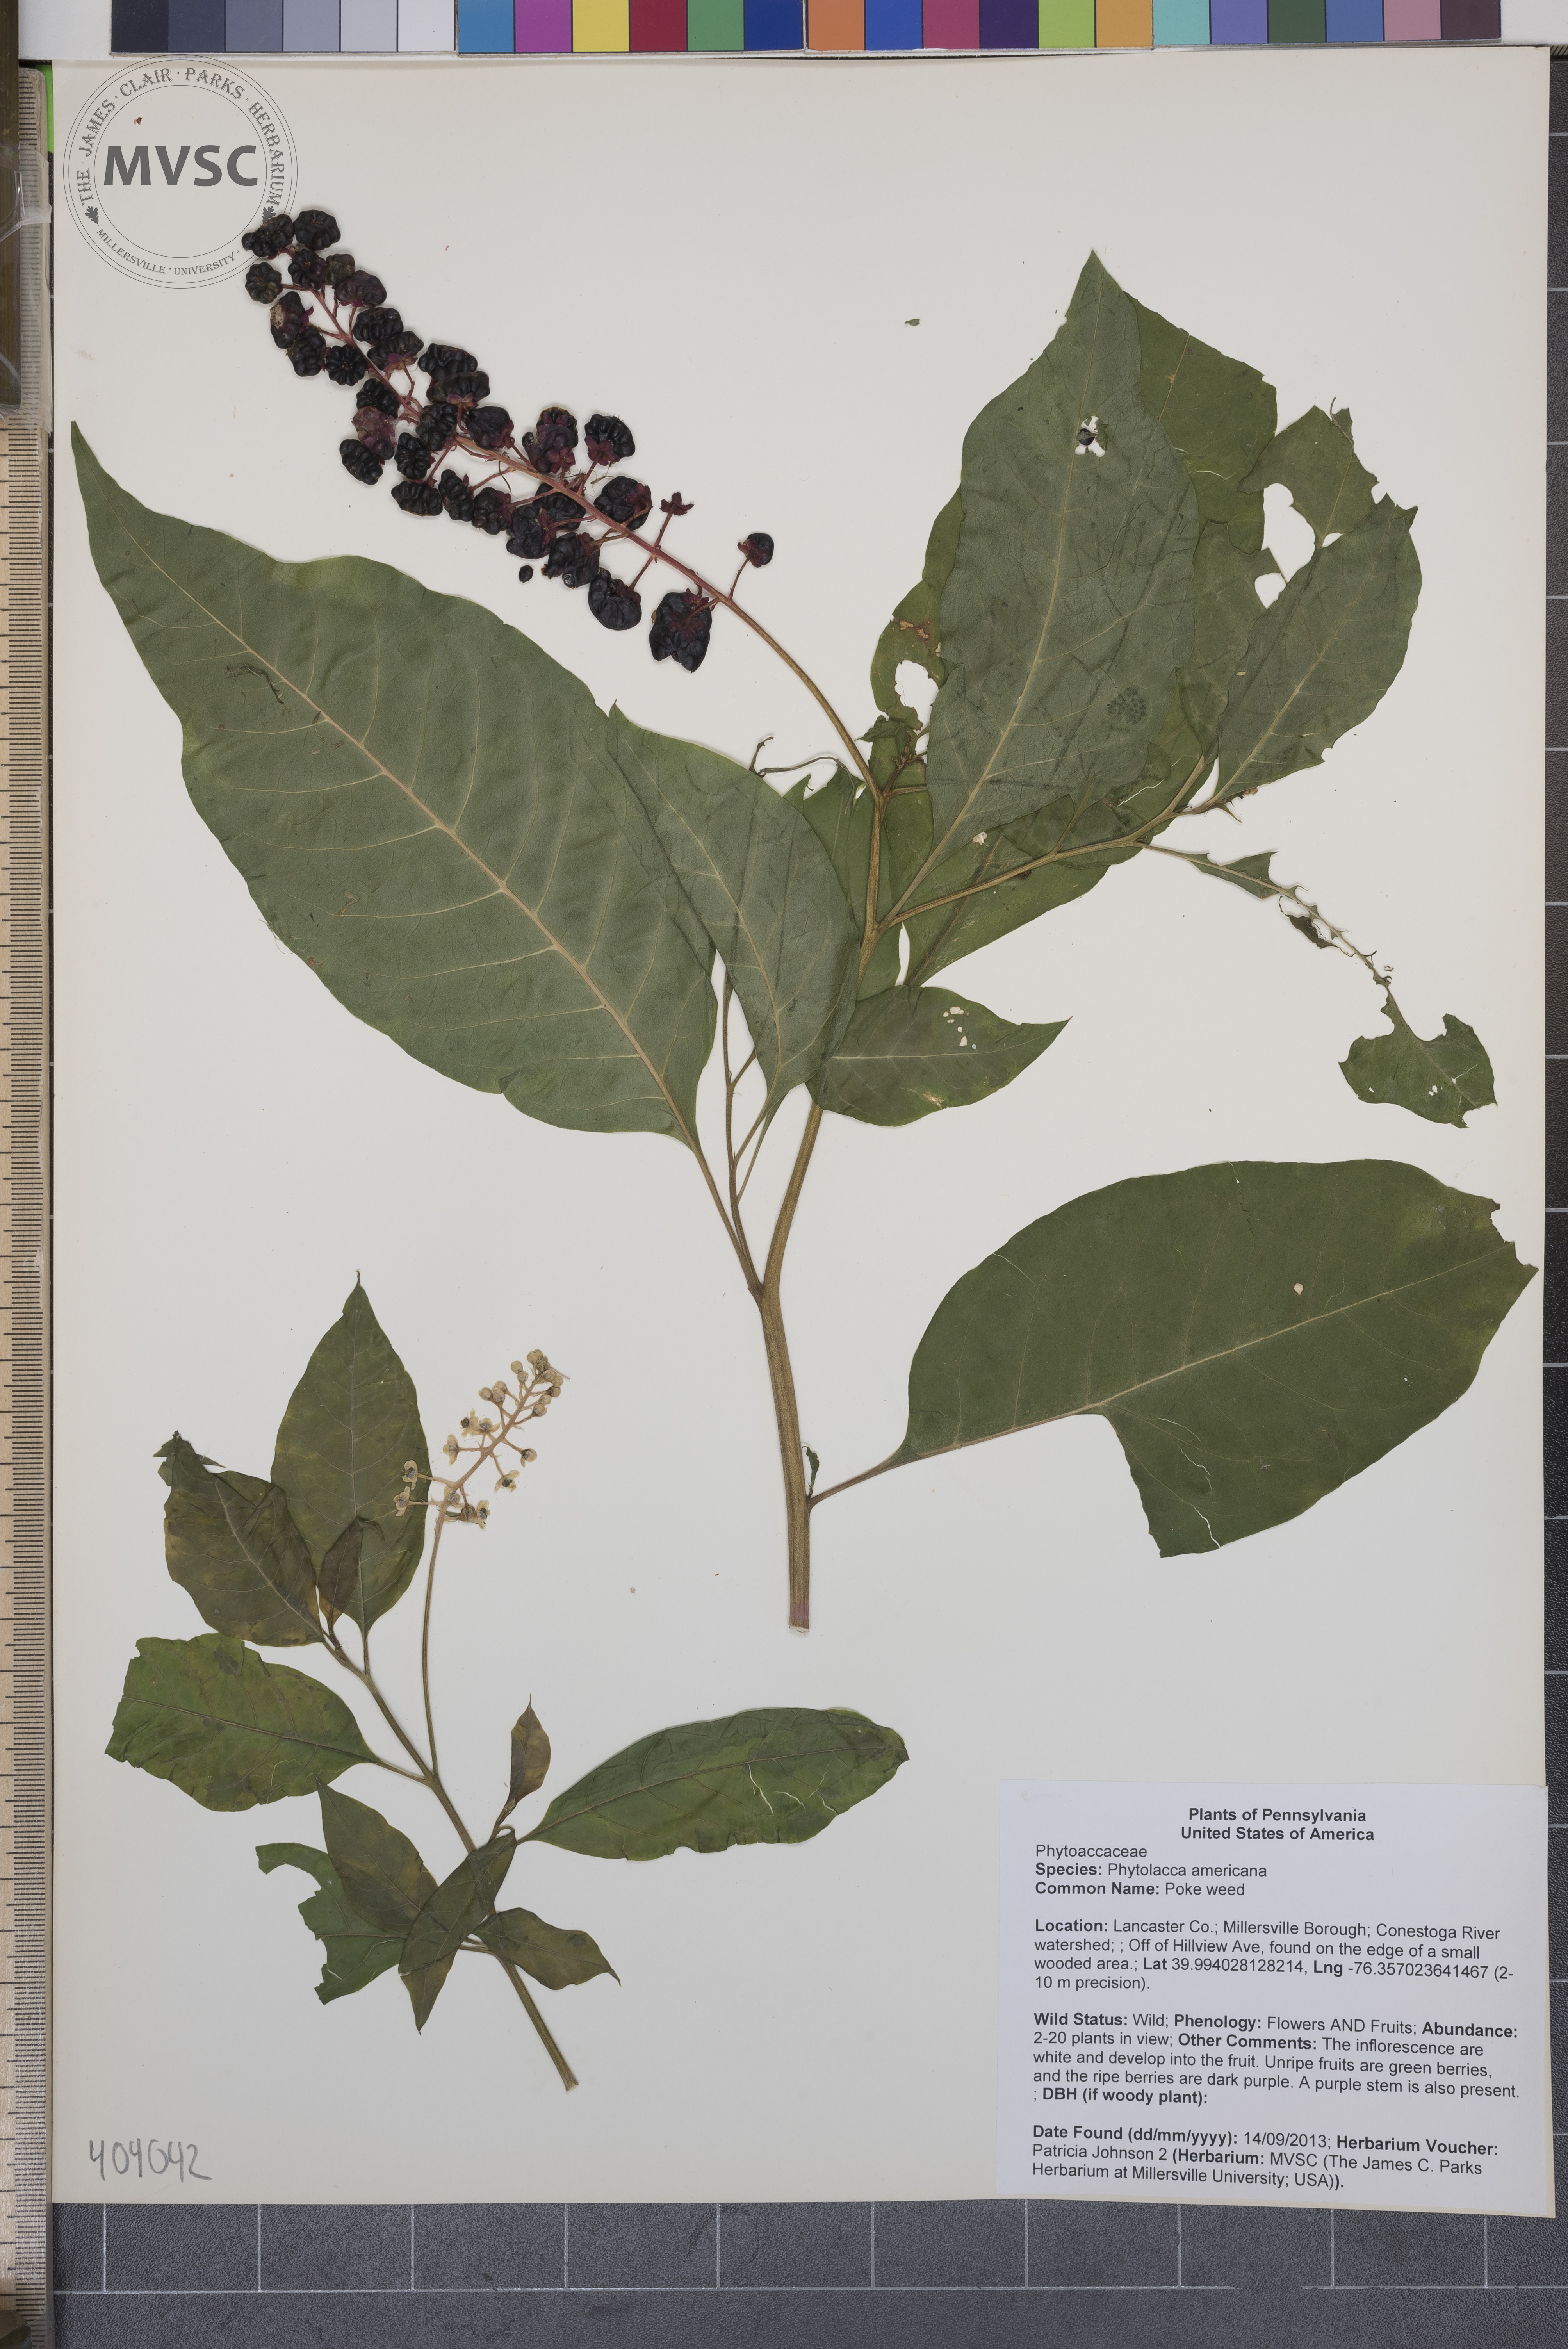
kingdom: Plantae
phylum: Tracheophyta
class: Magnoliopsida
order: Caryophyllales
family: Phytolaccaceae
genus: Phytolacca
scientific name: Phytolacca americana
